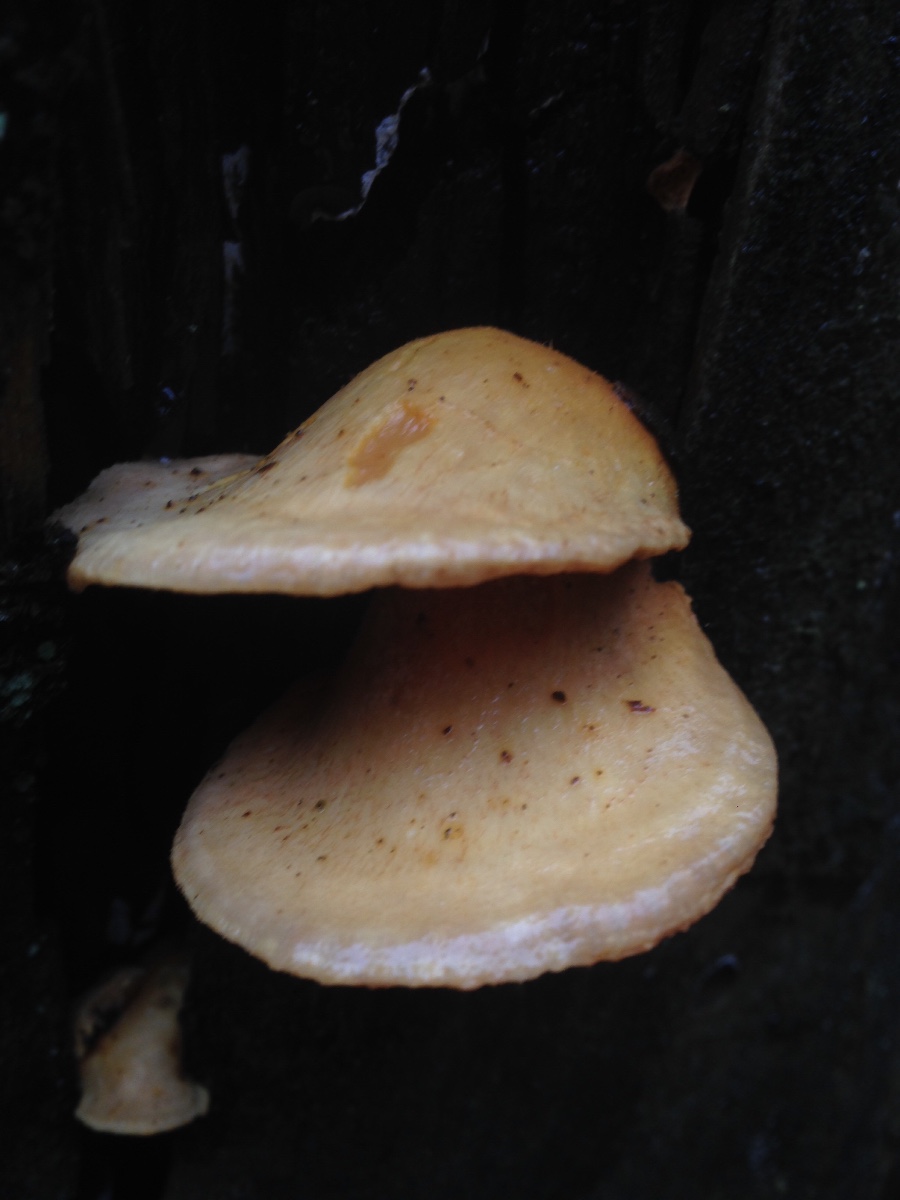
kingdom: Fungi
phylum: Basidiomycota
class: Agaricomycetes
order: Boletales
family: Tapinellaceae
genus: Tapinella
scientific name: Tapinella panuoides
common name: tømmer-viftesvamp
